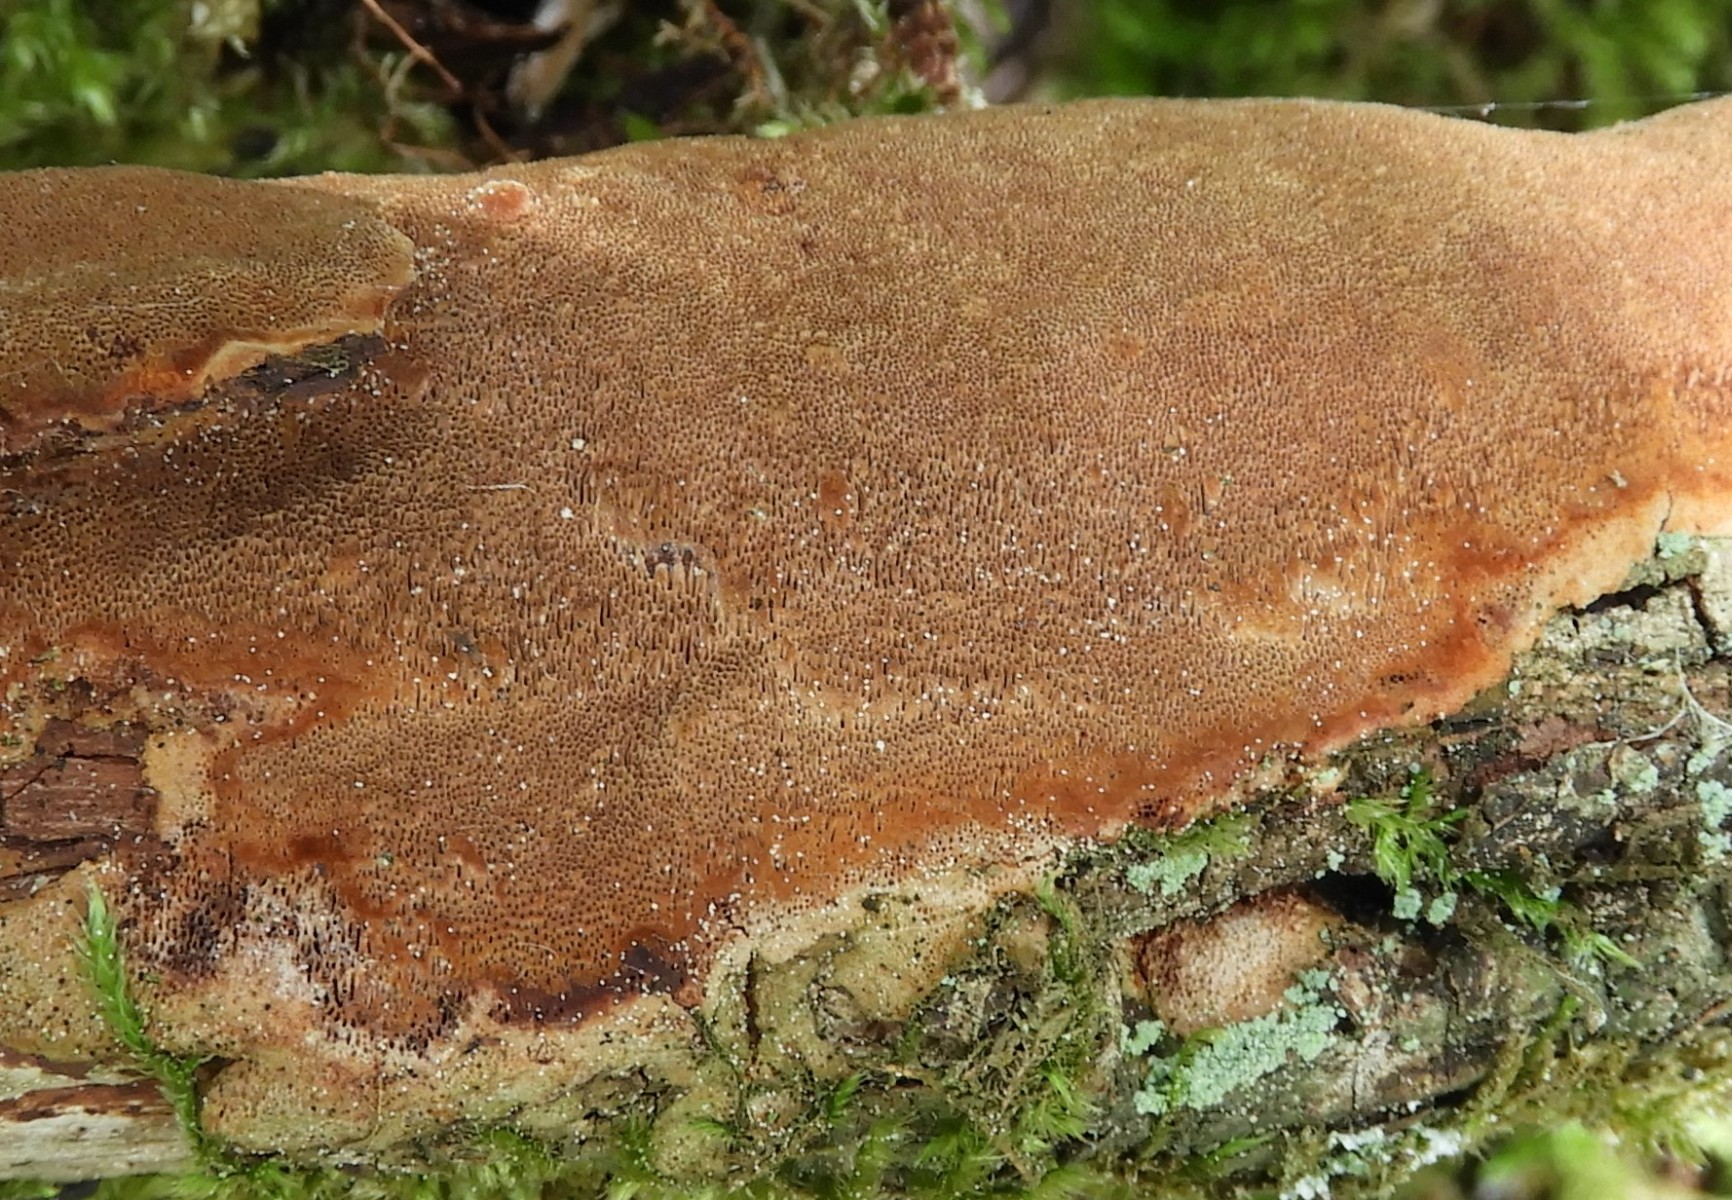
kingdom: Fungi
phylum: Basidiomycota
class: Agaricomycetes
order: Hymenochaetales
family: Hymenochaetaceae
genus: Fuscoporia
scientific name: Fuscoporia
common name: Ildporesvamp
